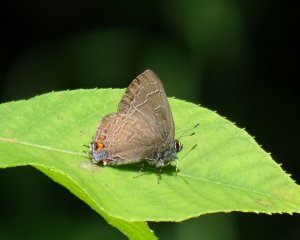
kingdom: Animalia
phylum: Arthropoda
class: Insecta
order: Lepidoptera
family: Lycaenidae
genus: Satyrium
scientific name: Satyrium calanus
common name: Banded Hairstreak
